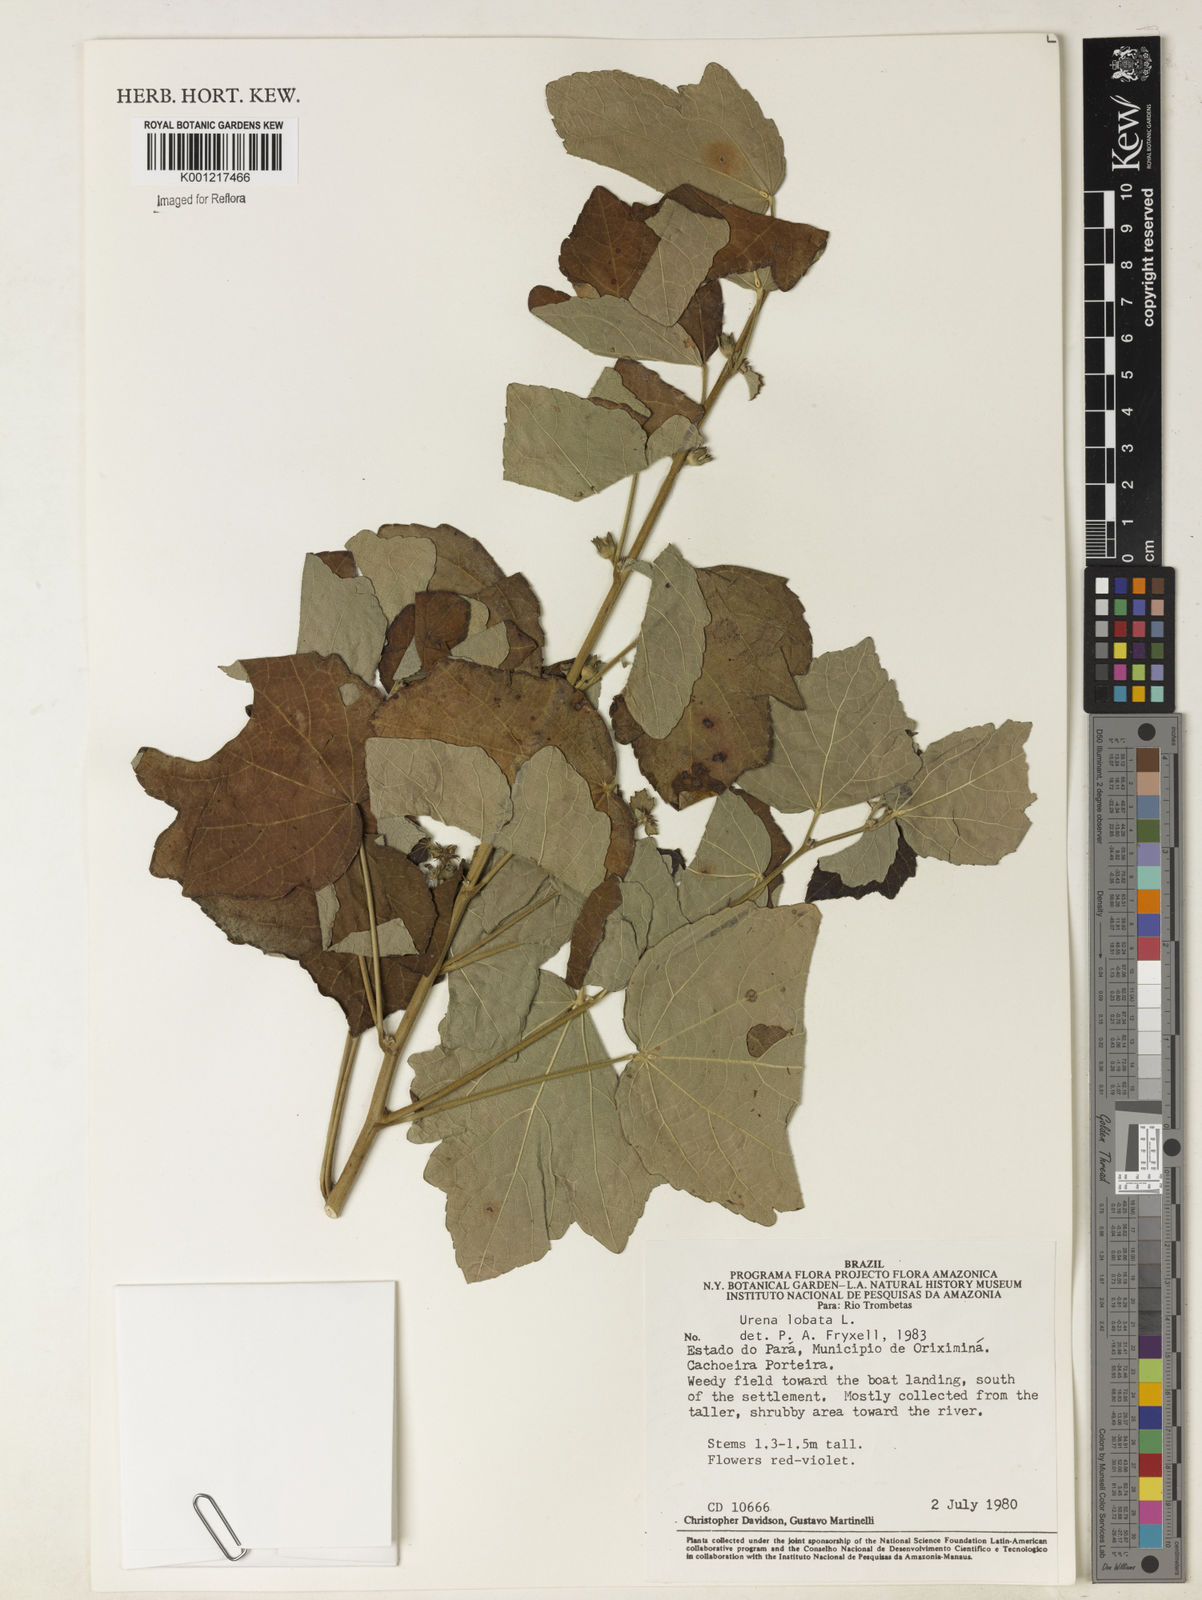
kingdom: Plantae
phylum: Tracheophyta
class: Magnoliopsida
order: Malvales
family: Malvaceae
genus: Urena
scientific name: Urena lobata
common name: Caesarweed
